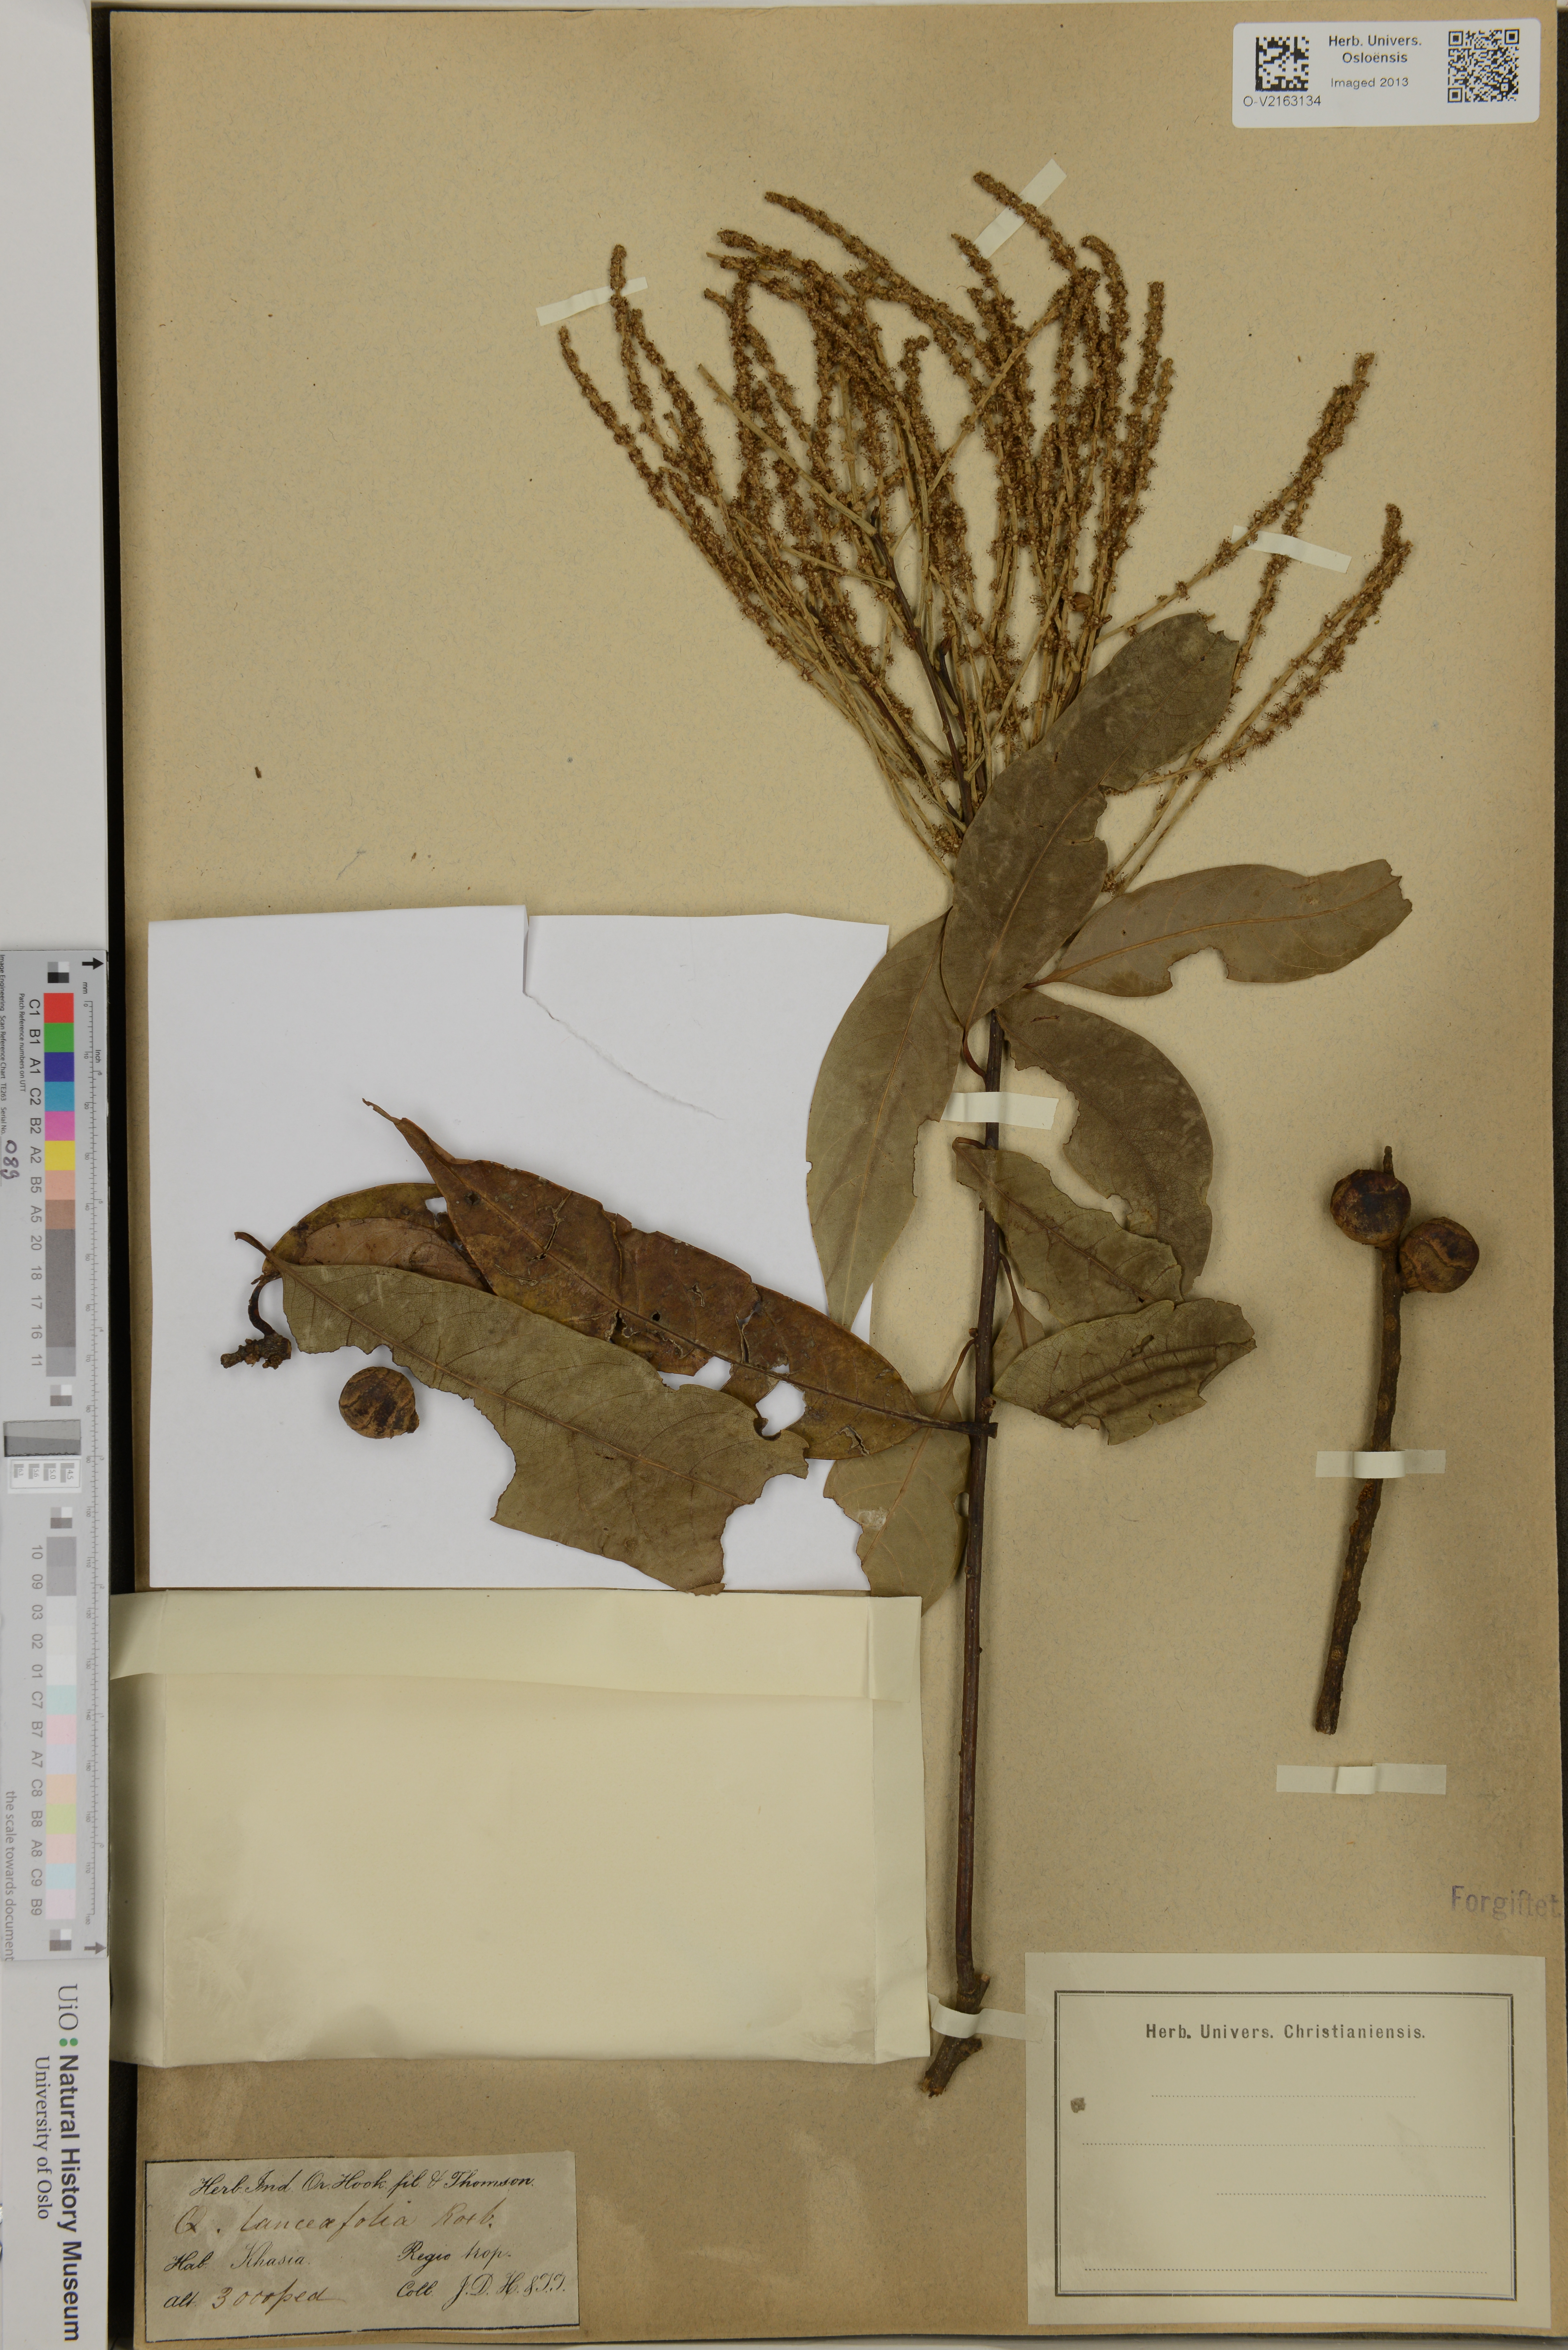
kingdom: Plantae
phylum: Tracheophyta
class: Magnoliopsida
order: Fagales
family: Fagaceae
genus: Castanopsis
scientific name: Castanopsis lanceifolia
